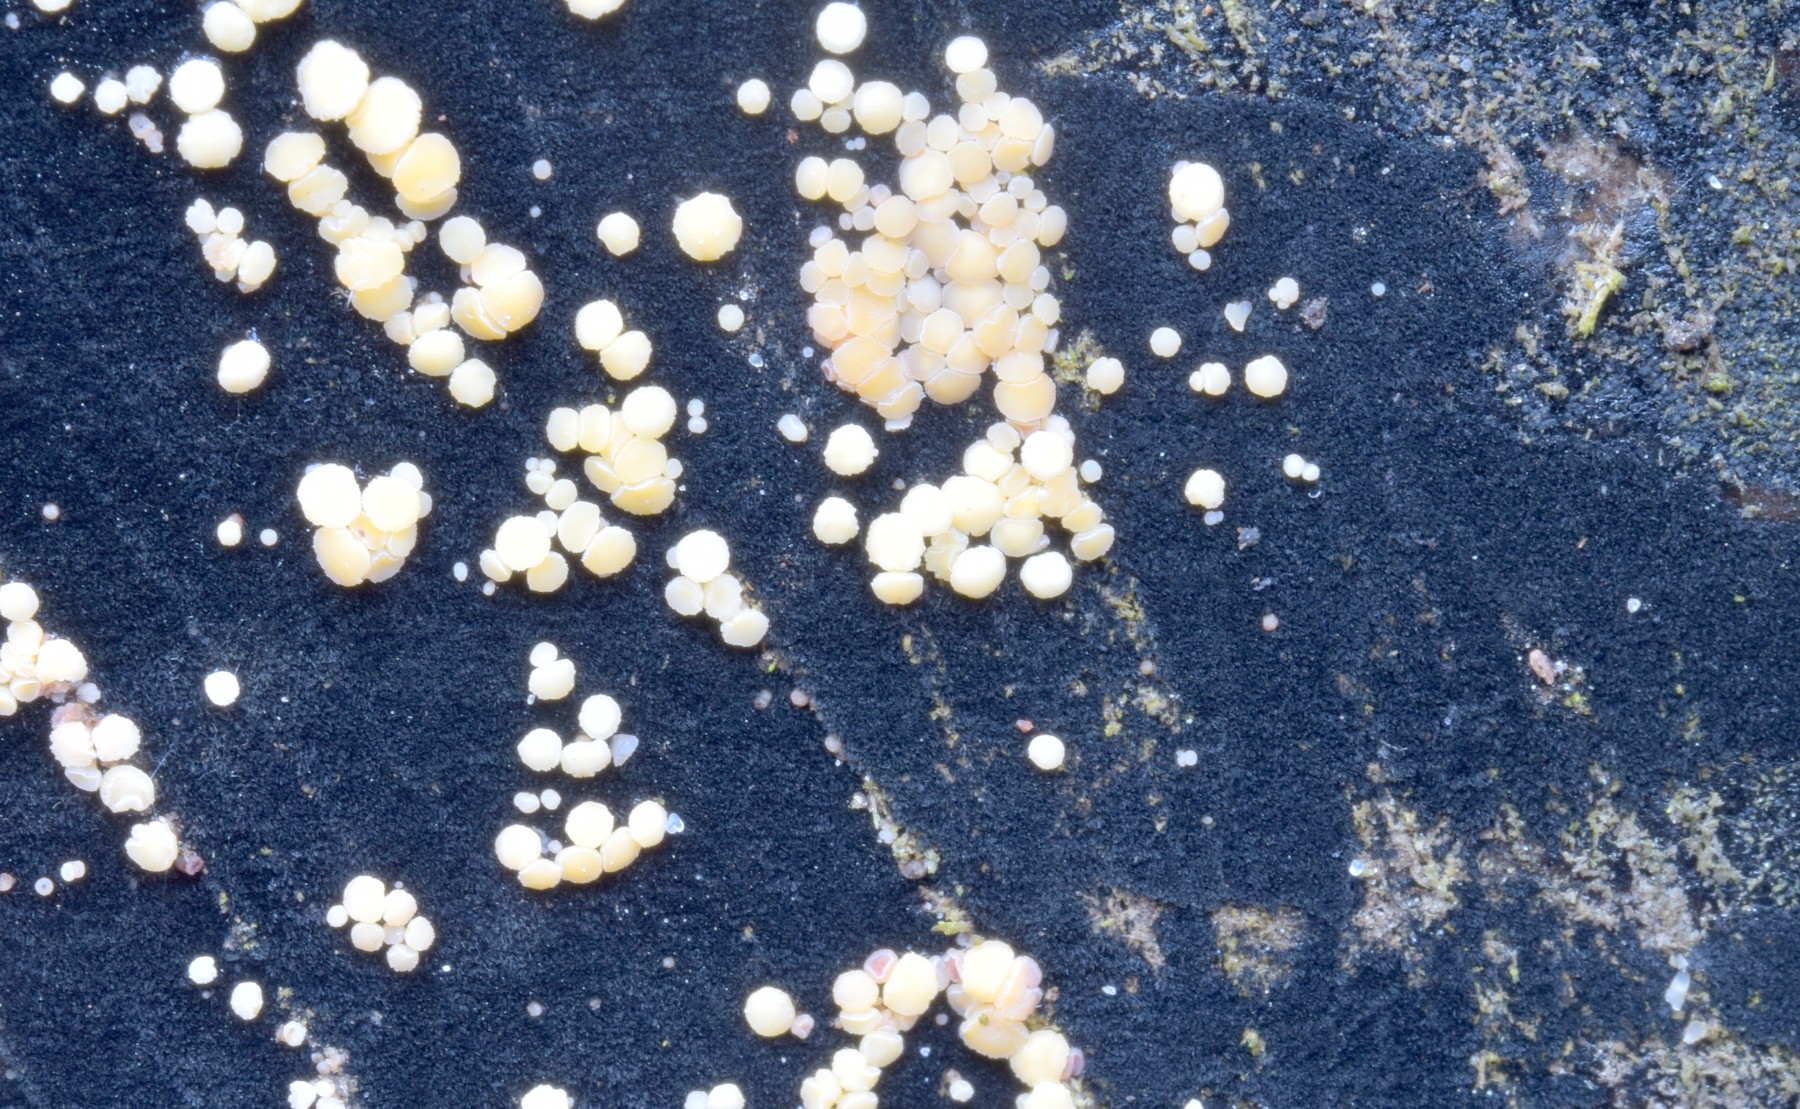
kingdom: Fungi
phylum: Ascomycota
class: Leotiomycetes
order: Helotiales
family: Helotiaceae
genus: Bispora
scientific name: Bispora pallescens
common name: måtte-snitskive
